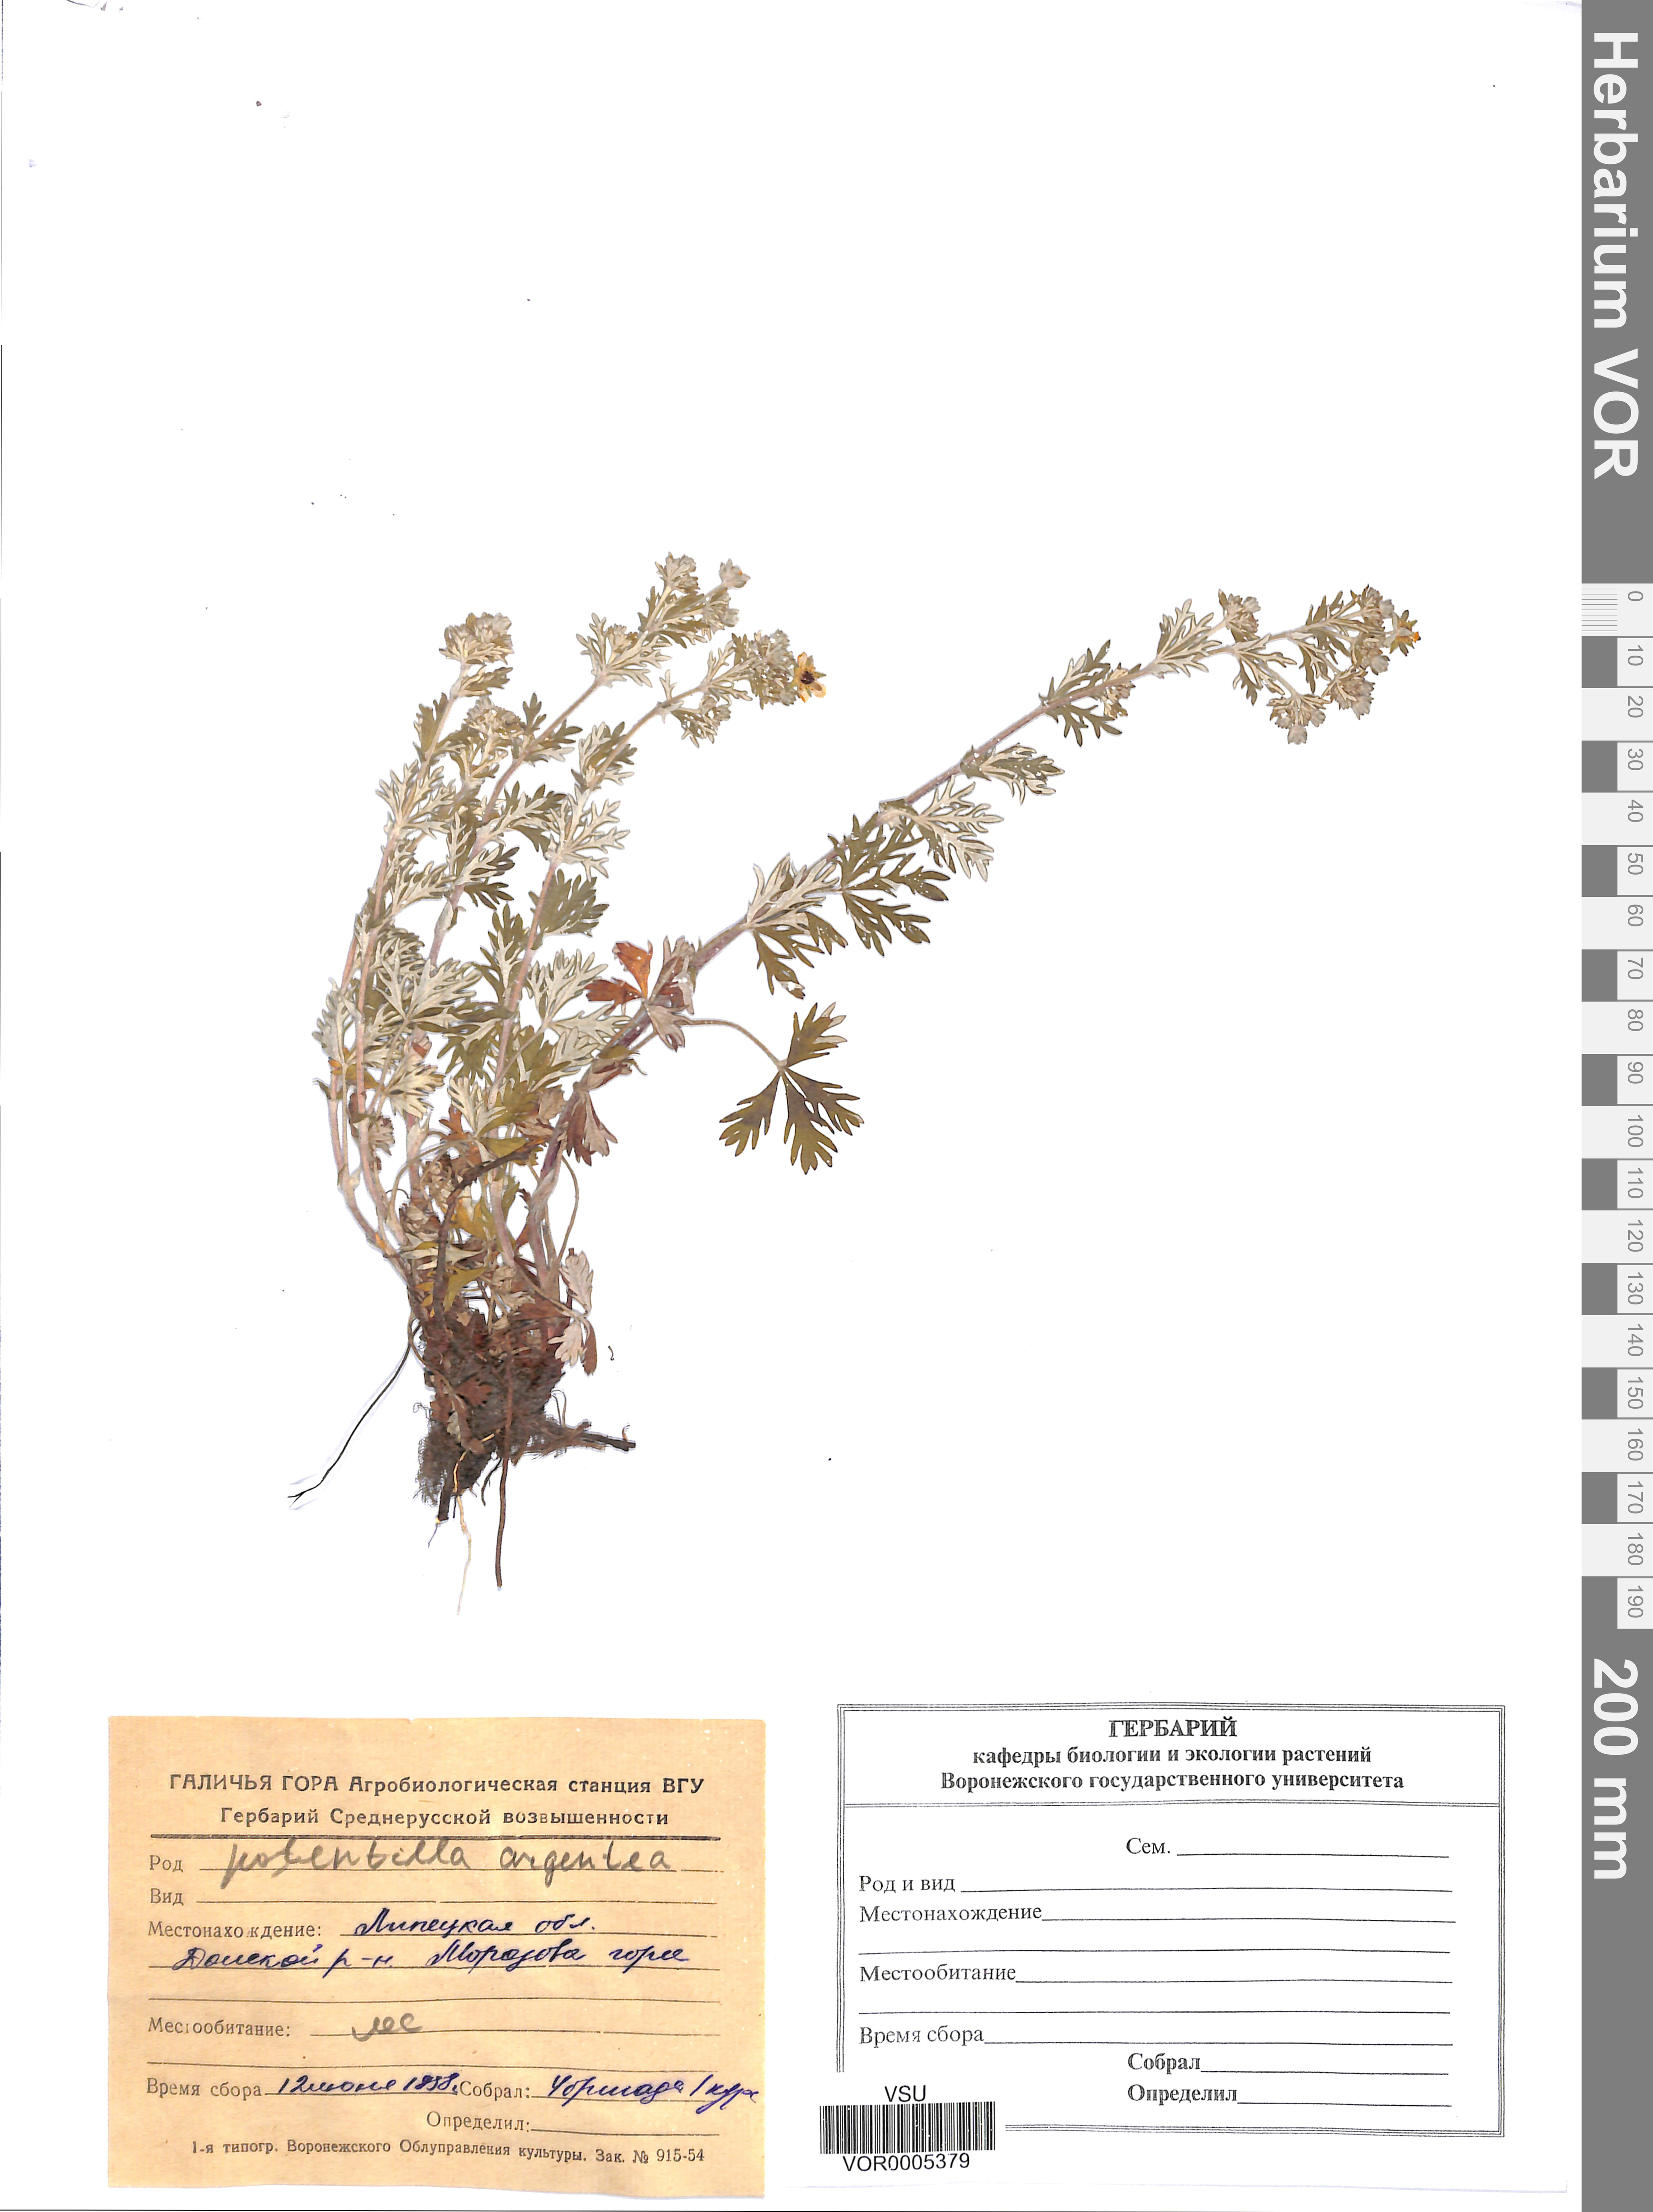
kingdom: Plantae
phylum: Tracheophyta
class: Magnoliopsida
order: Rosales
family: Rosaceae
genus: Potentilla
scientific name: Potentilla argentea
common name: Hoary cinquefoil
